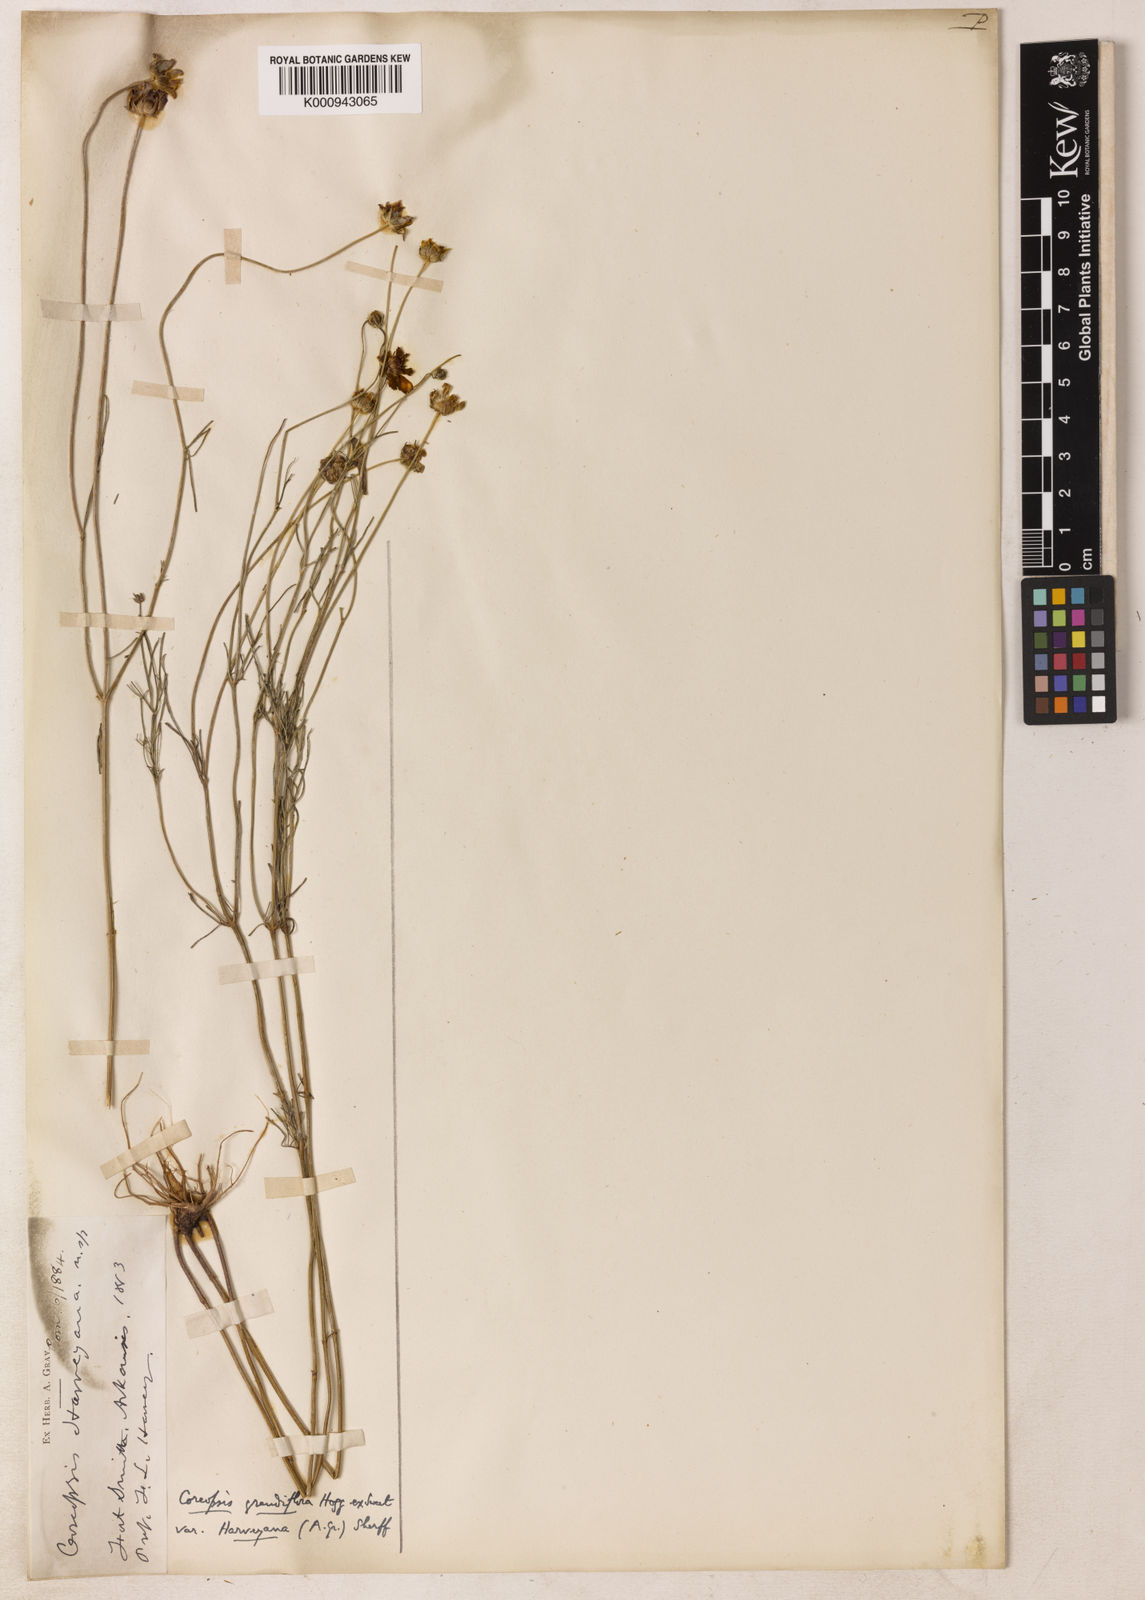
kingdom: Plantae
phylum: Tracheophyta
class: Magnoliopsida
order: Asterales
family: Asteraceae
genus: Coreopsis
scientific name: Coreopsis grandiflora
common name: Large-flowered tickseed
